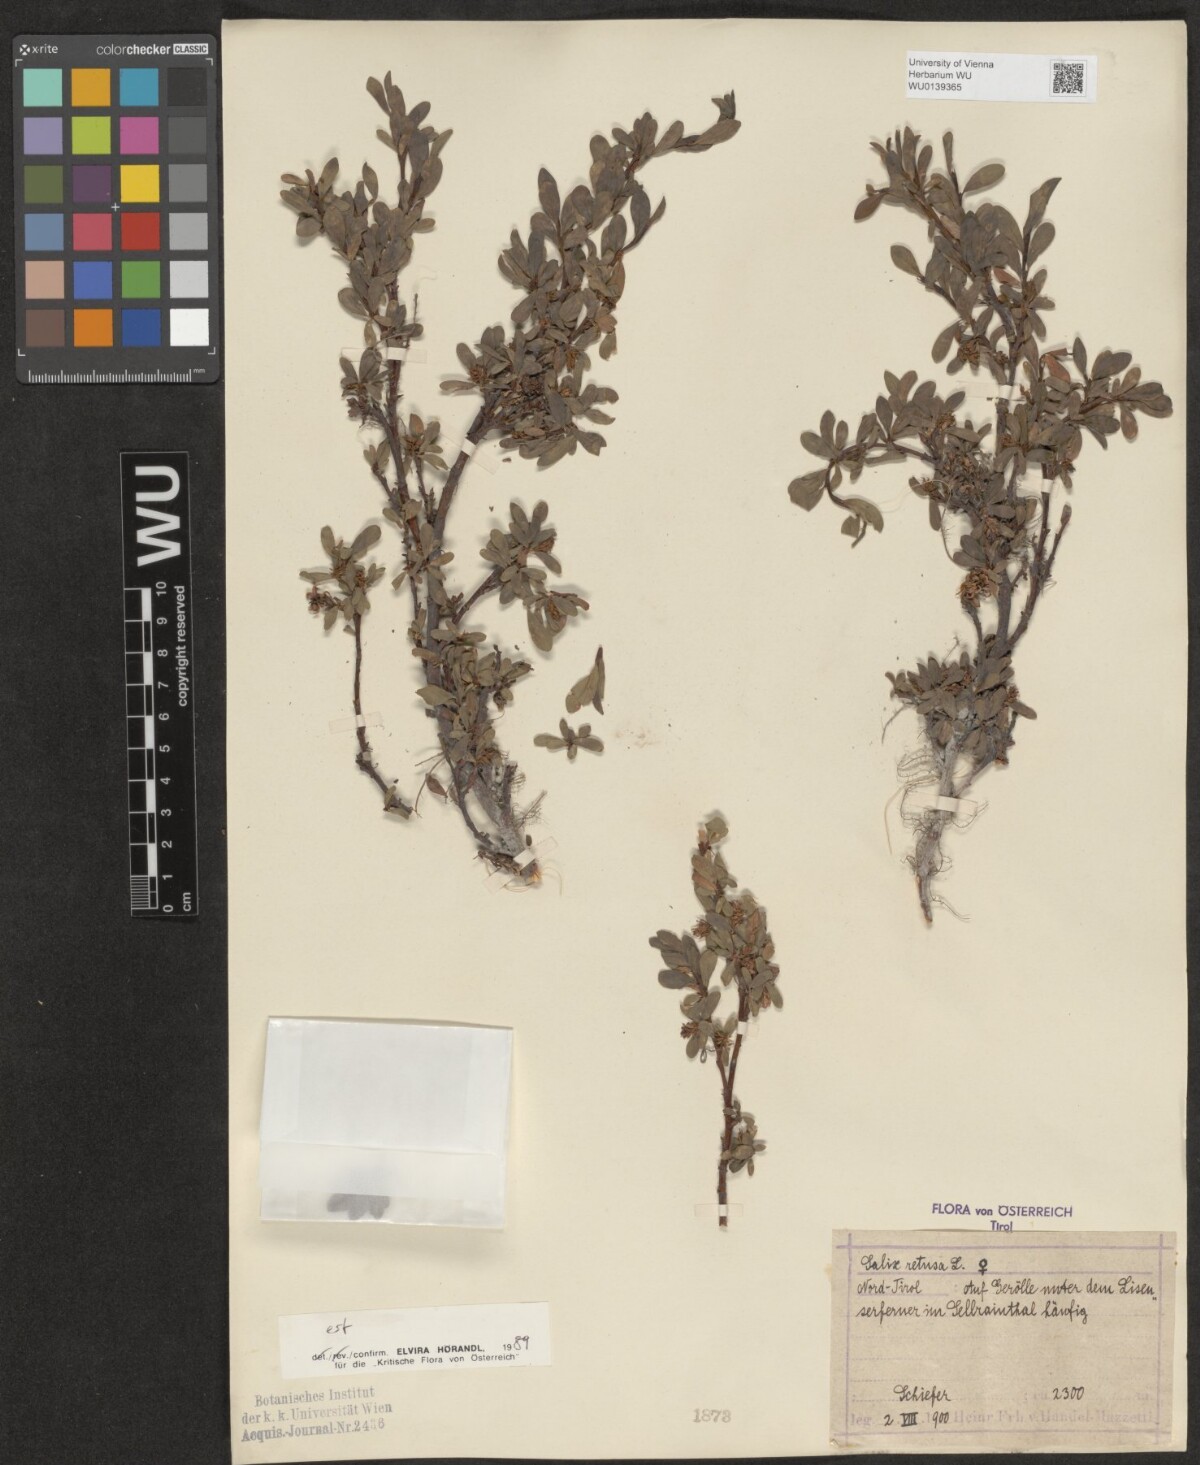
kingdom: Plantae
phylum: Tracheophyta
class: Magnoliopsida
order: Malpighiales
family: Salicaceae
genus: Salix
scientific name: Salix retusa
